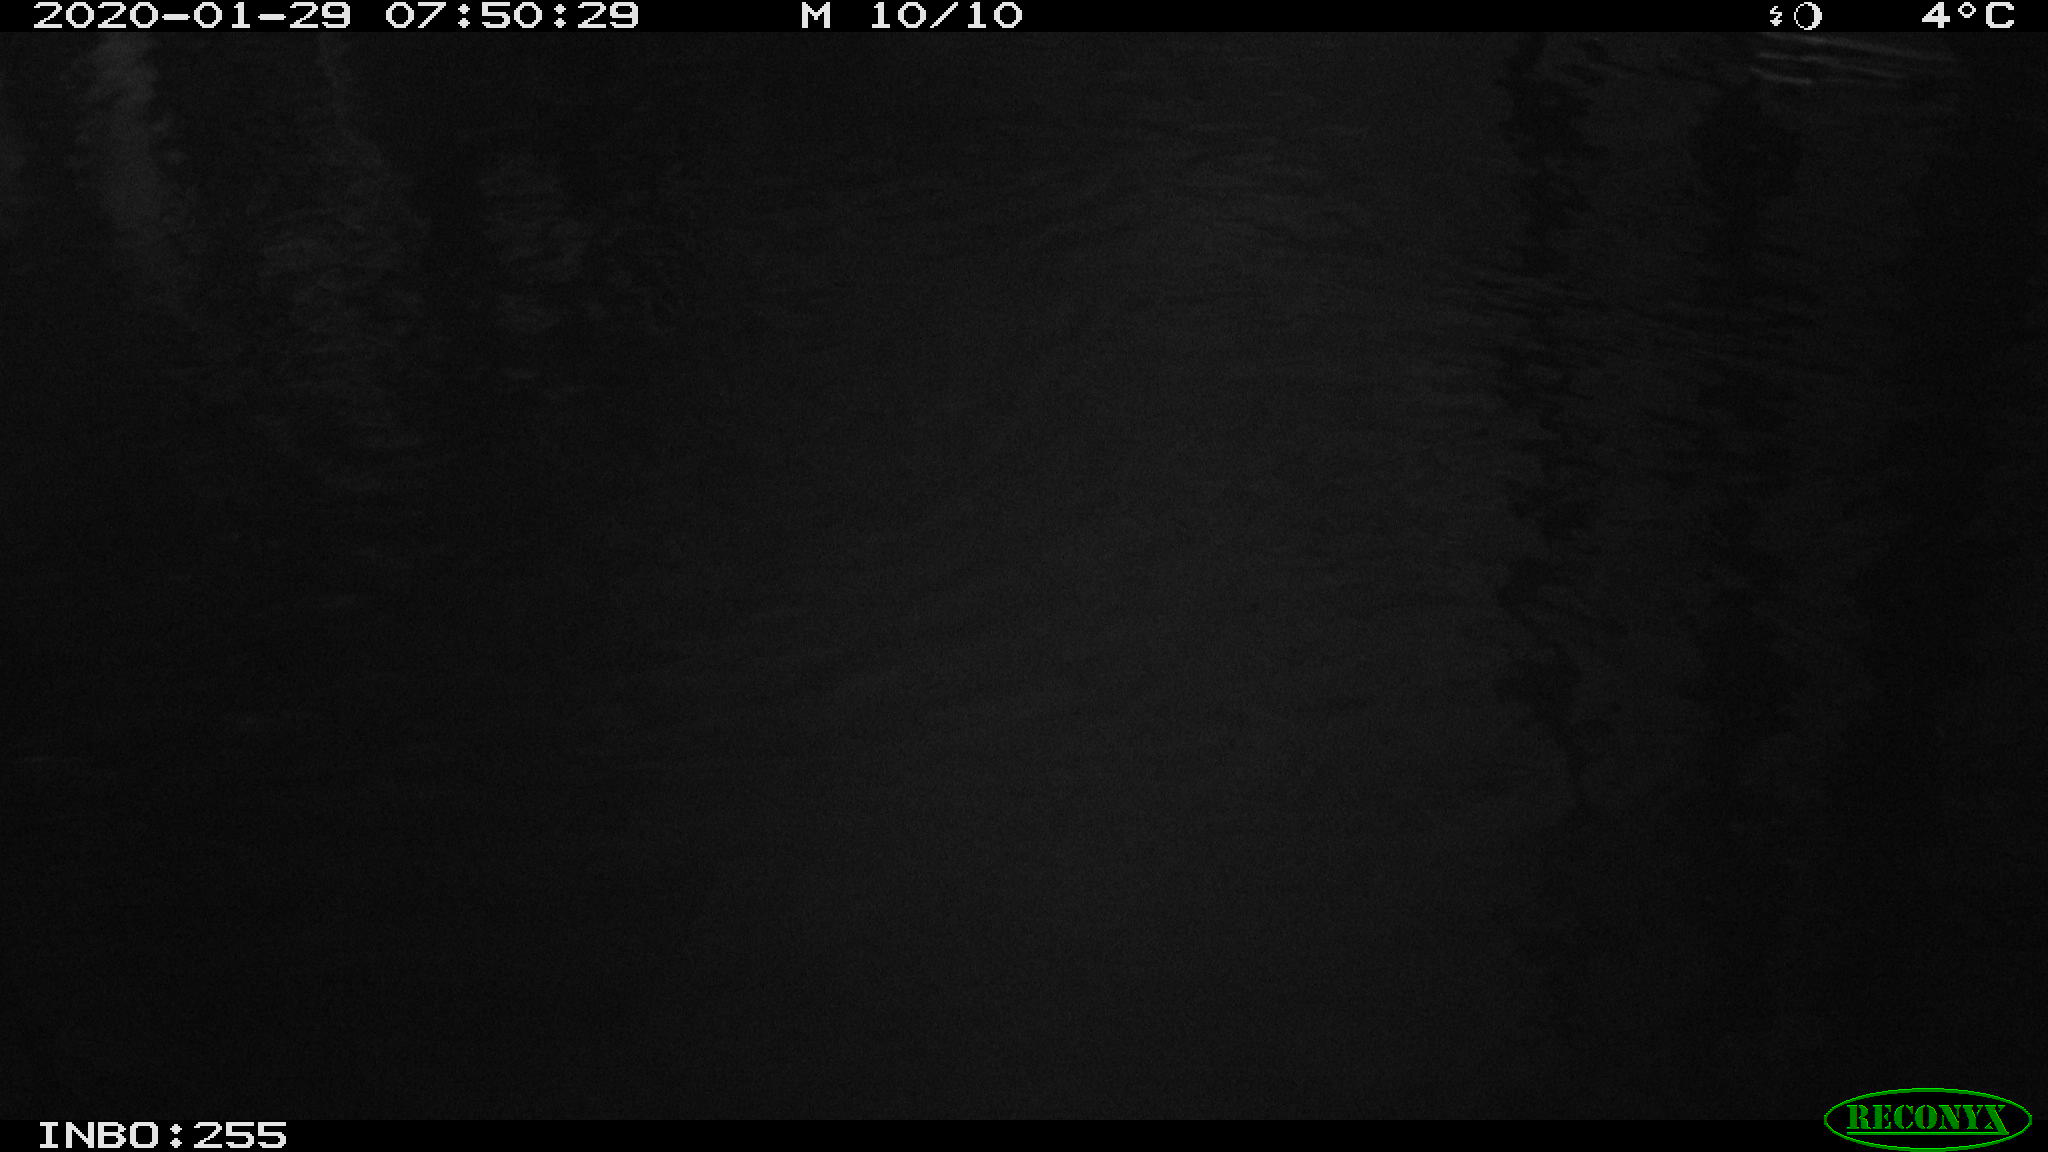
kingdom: Animalia
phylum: Chordata
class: Aves
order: Gruiformes
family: Rallidae
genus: Gallinula
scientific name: Gallinula chloropus
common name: Common moorhen
